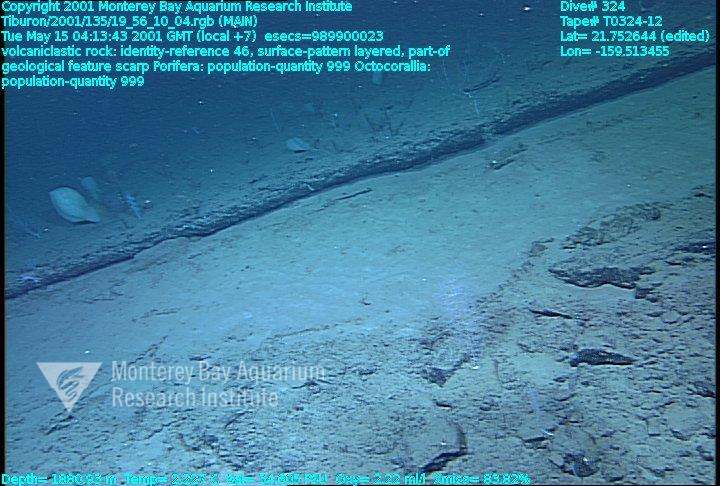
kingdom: Animalia
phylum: Porifera
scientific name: Porifera
